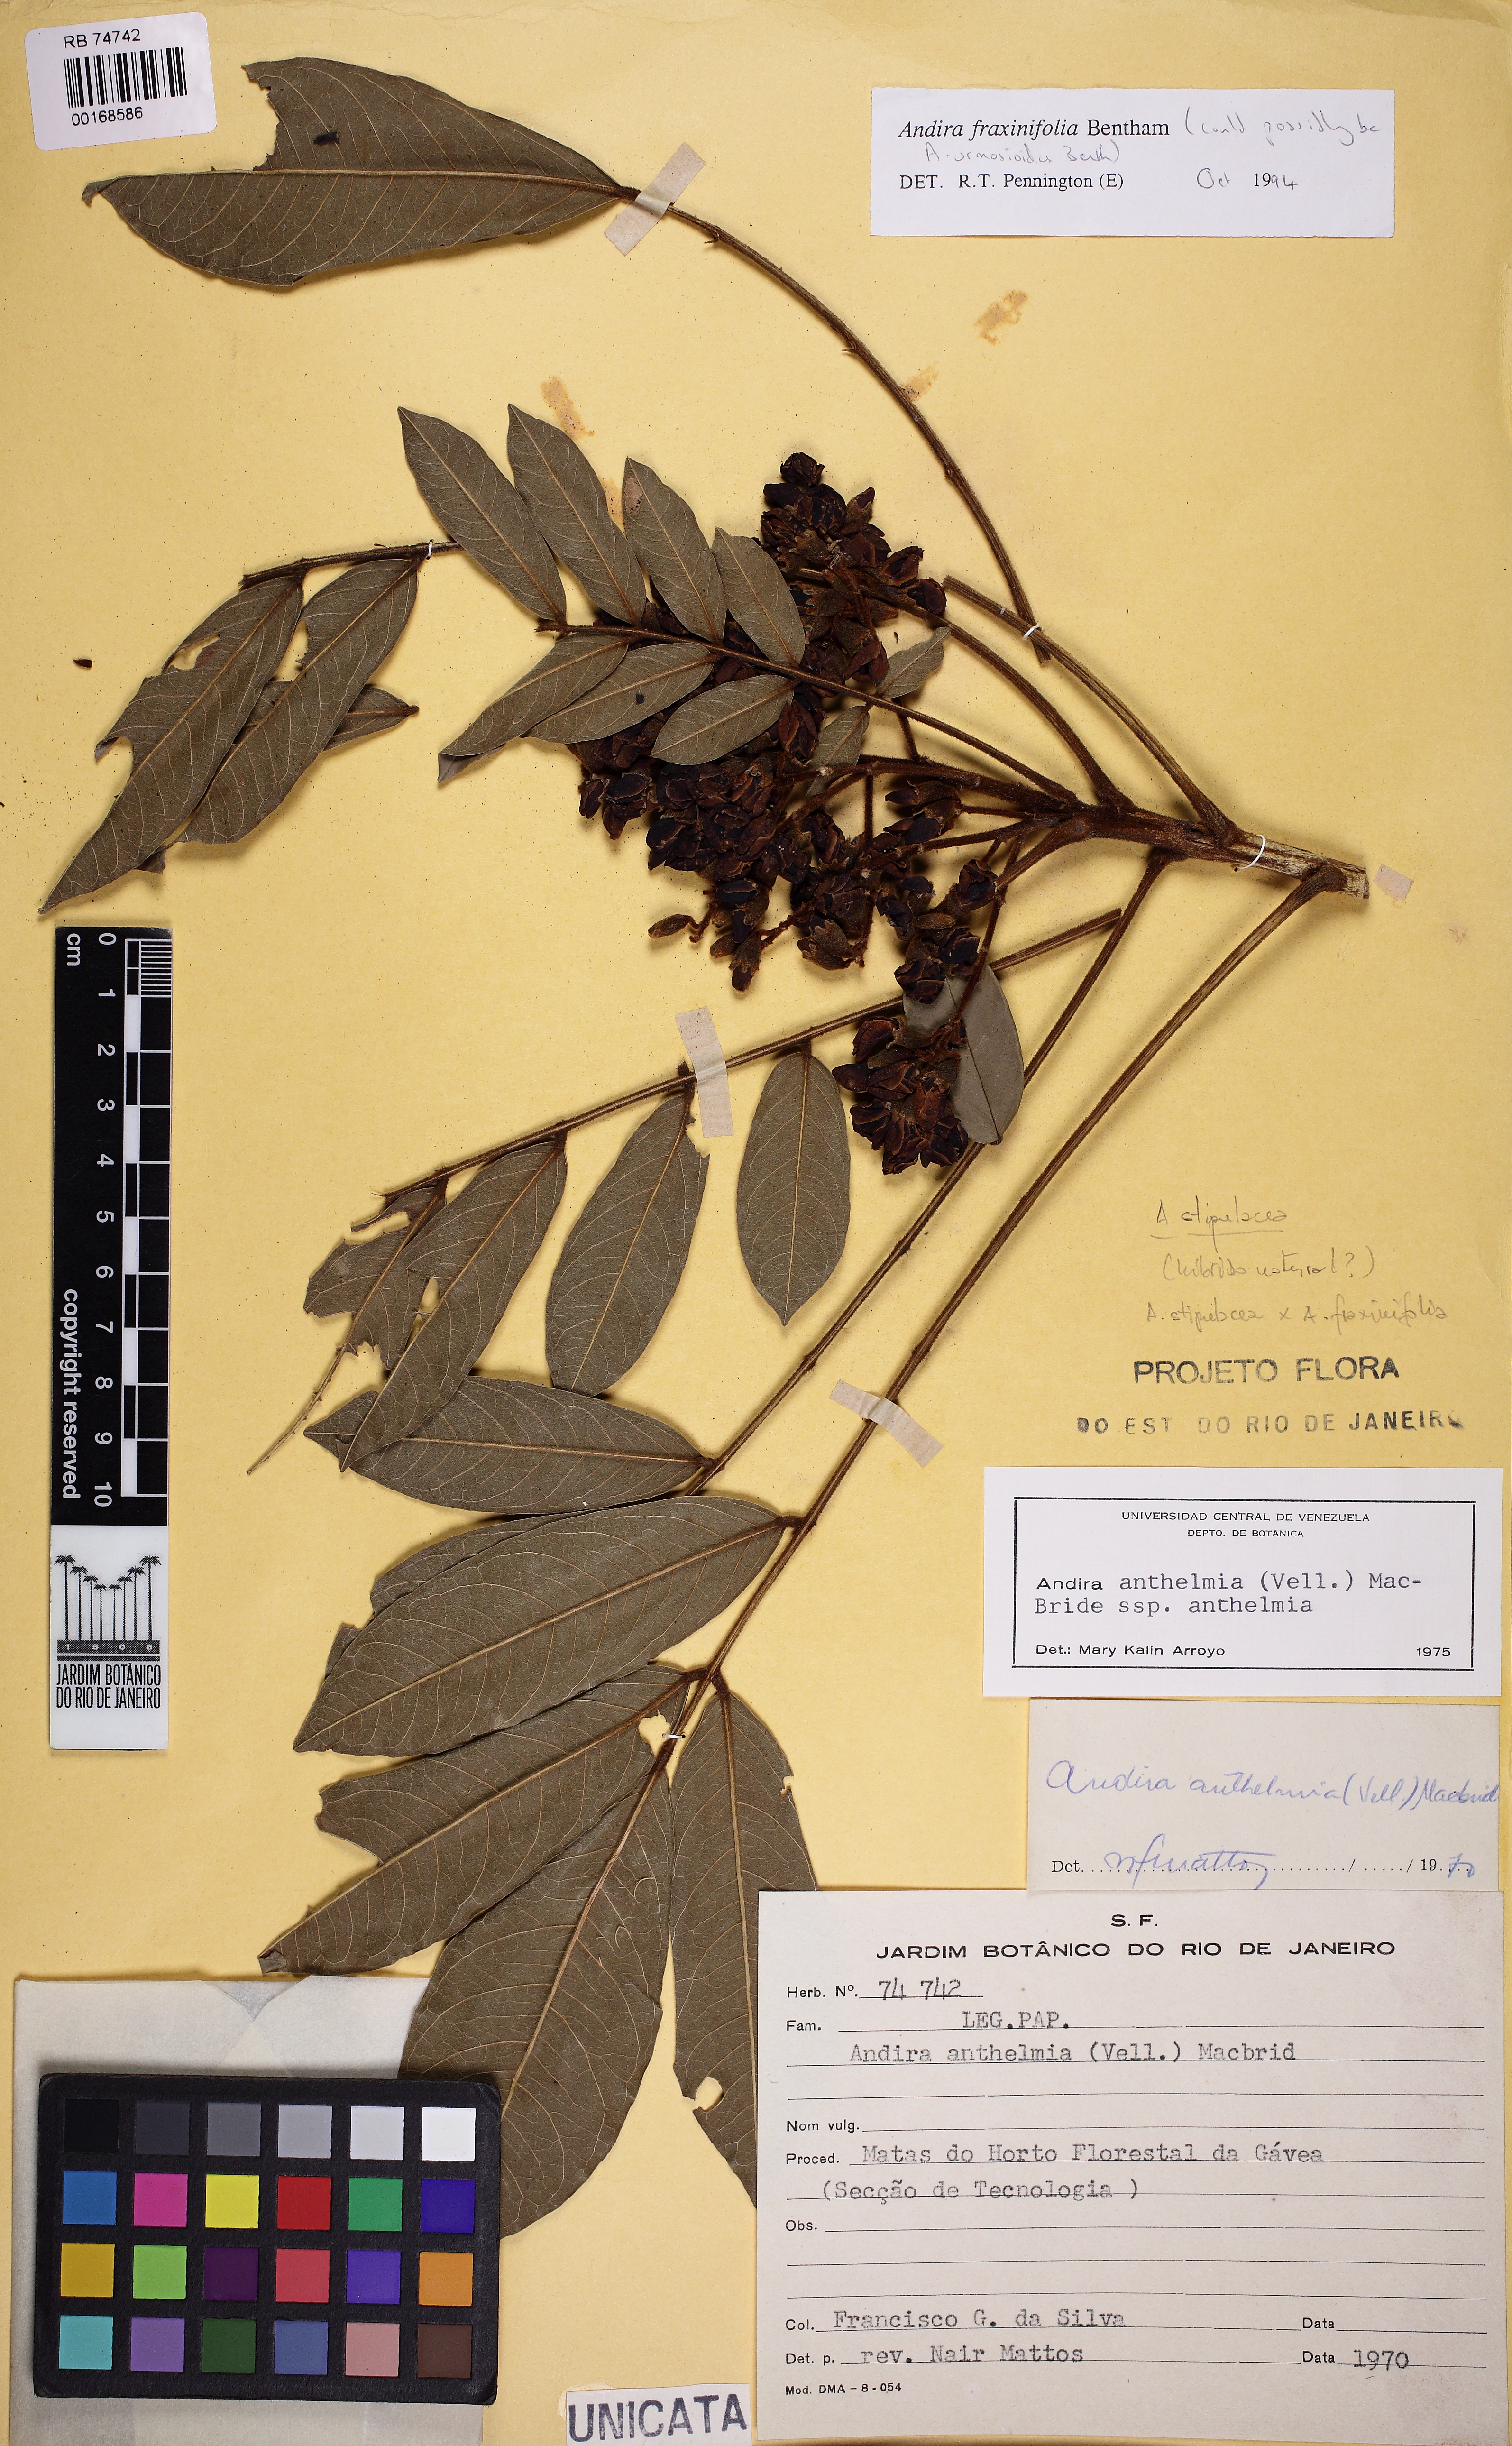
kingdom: Plantae
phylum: Tracheophyta
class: Magnoliopsida
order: Fabales
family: Fabaceae
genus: Andira
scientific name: Andira fraxinifolia
